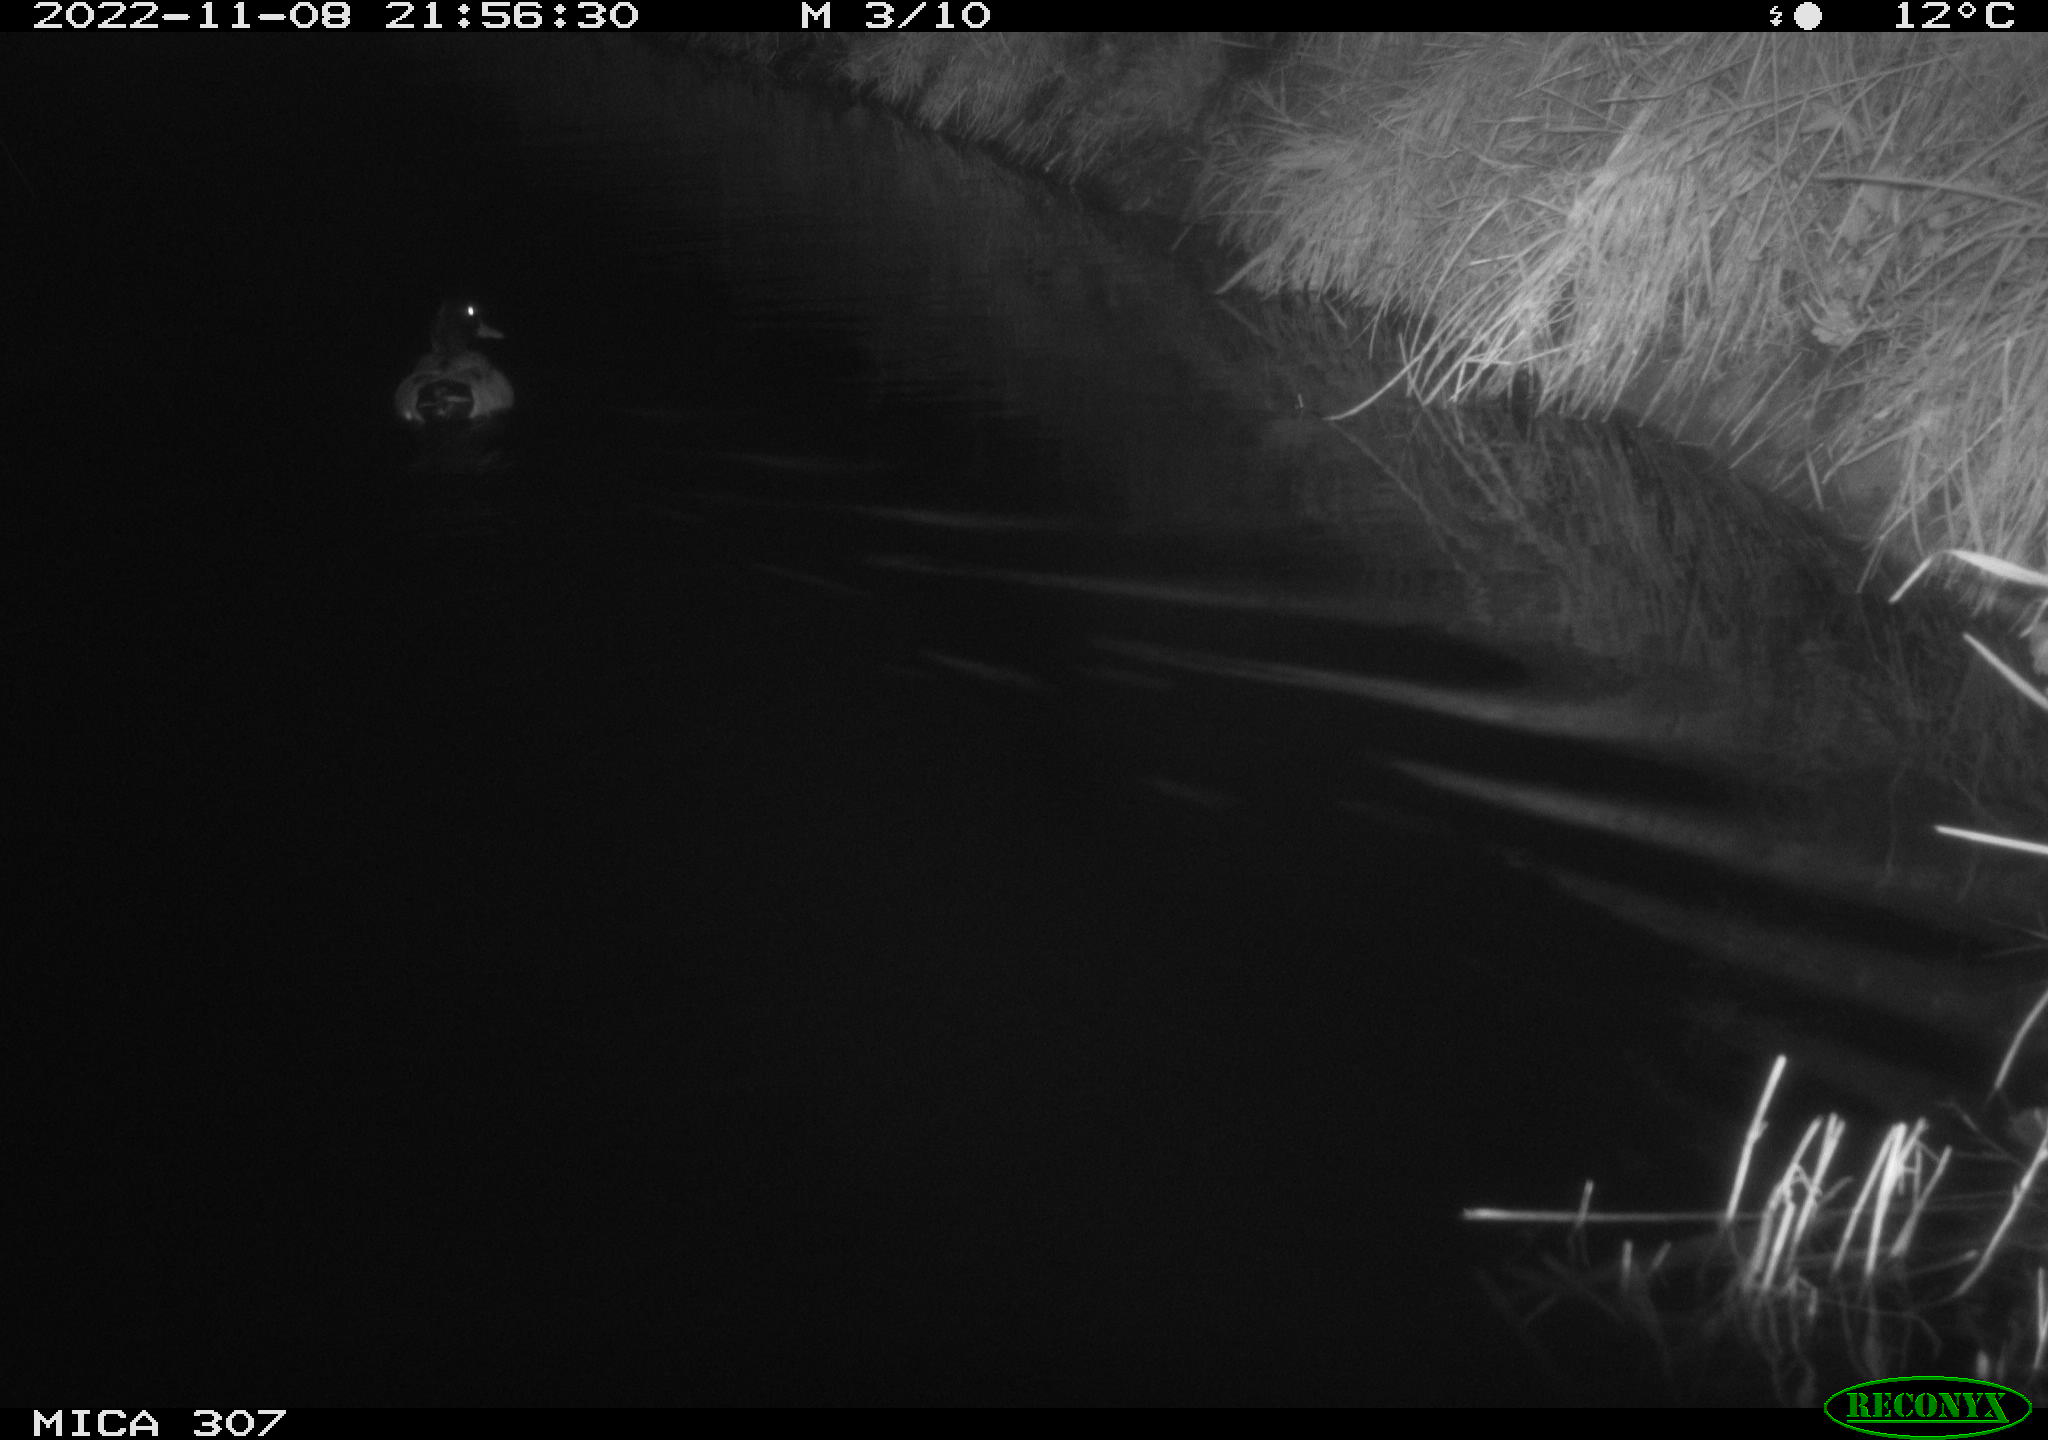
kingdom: Animalia
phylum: Chordata
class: Aves
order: Anseriformes
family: Anatidae
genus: Anas
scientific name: Anas
